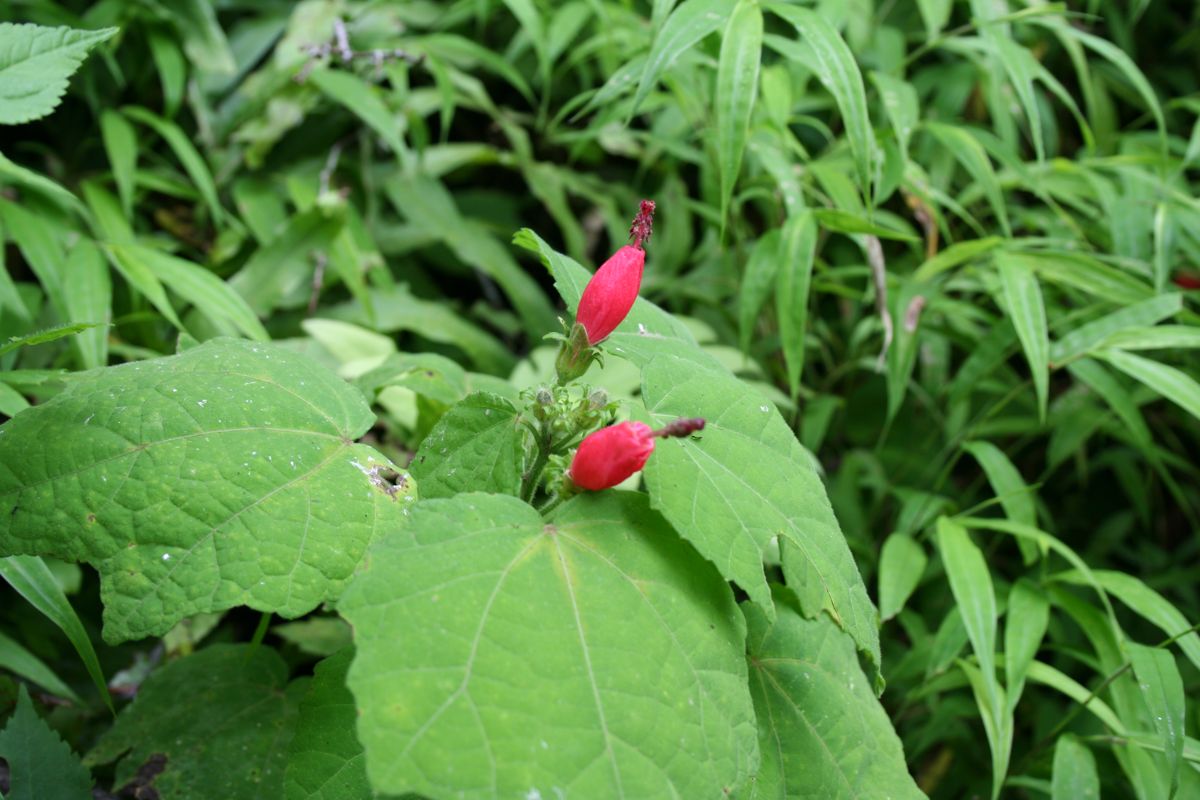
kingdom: Plantae
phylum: Tracheophyta
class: Magnoliopsida
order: Malvales
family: Malvaceae
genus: Malvaviscus
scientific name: Malvaviscus arboreus
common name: Wax mallow
